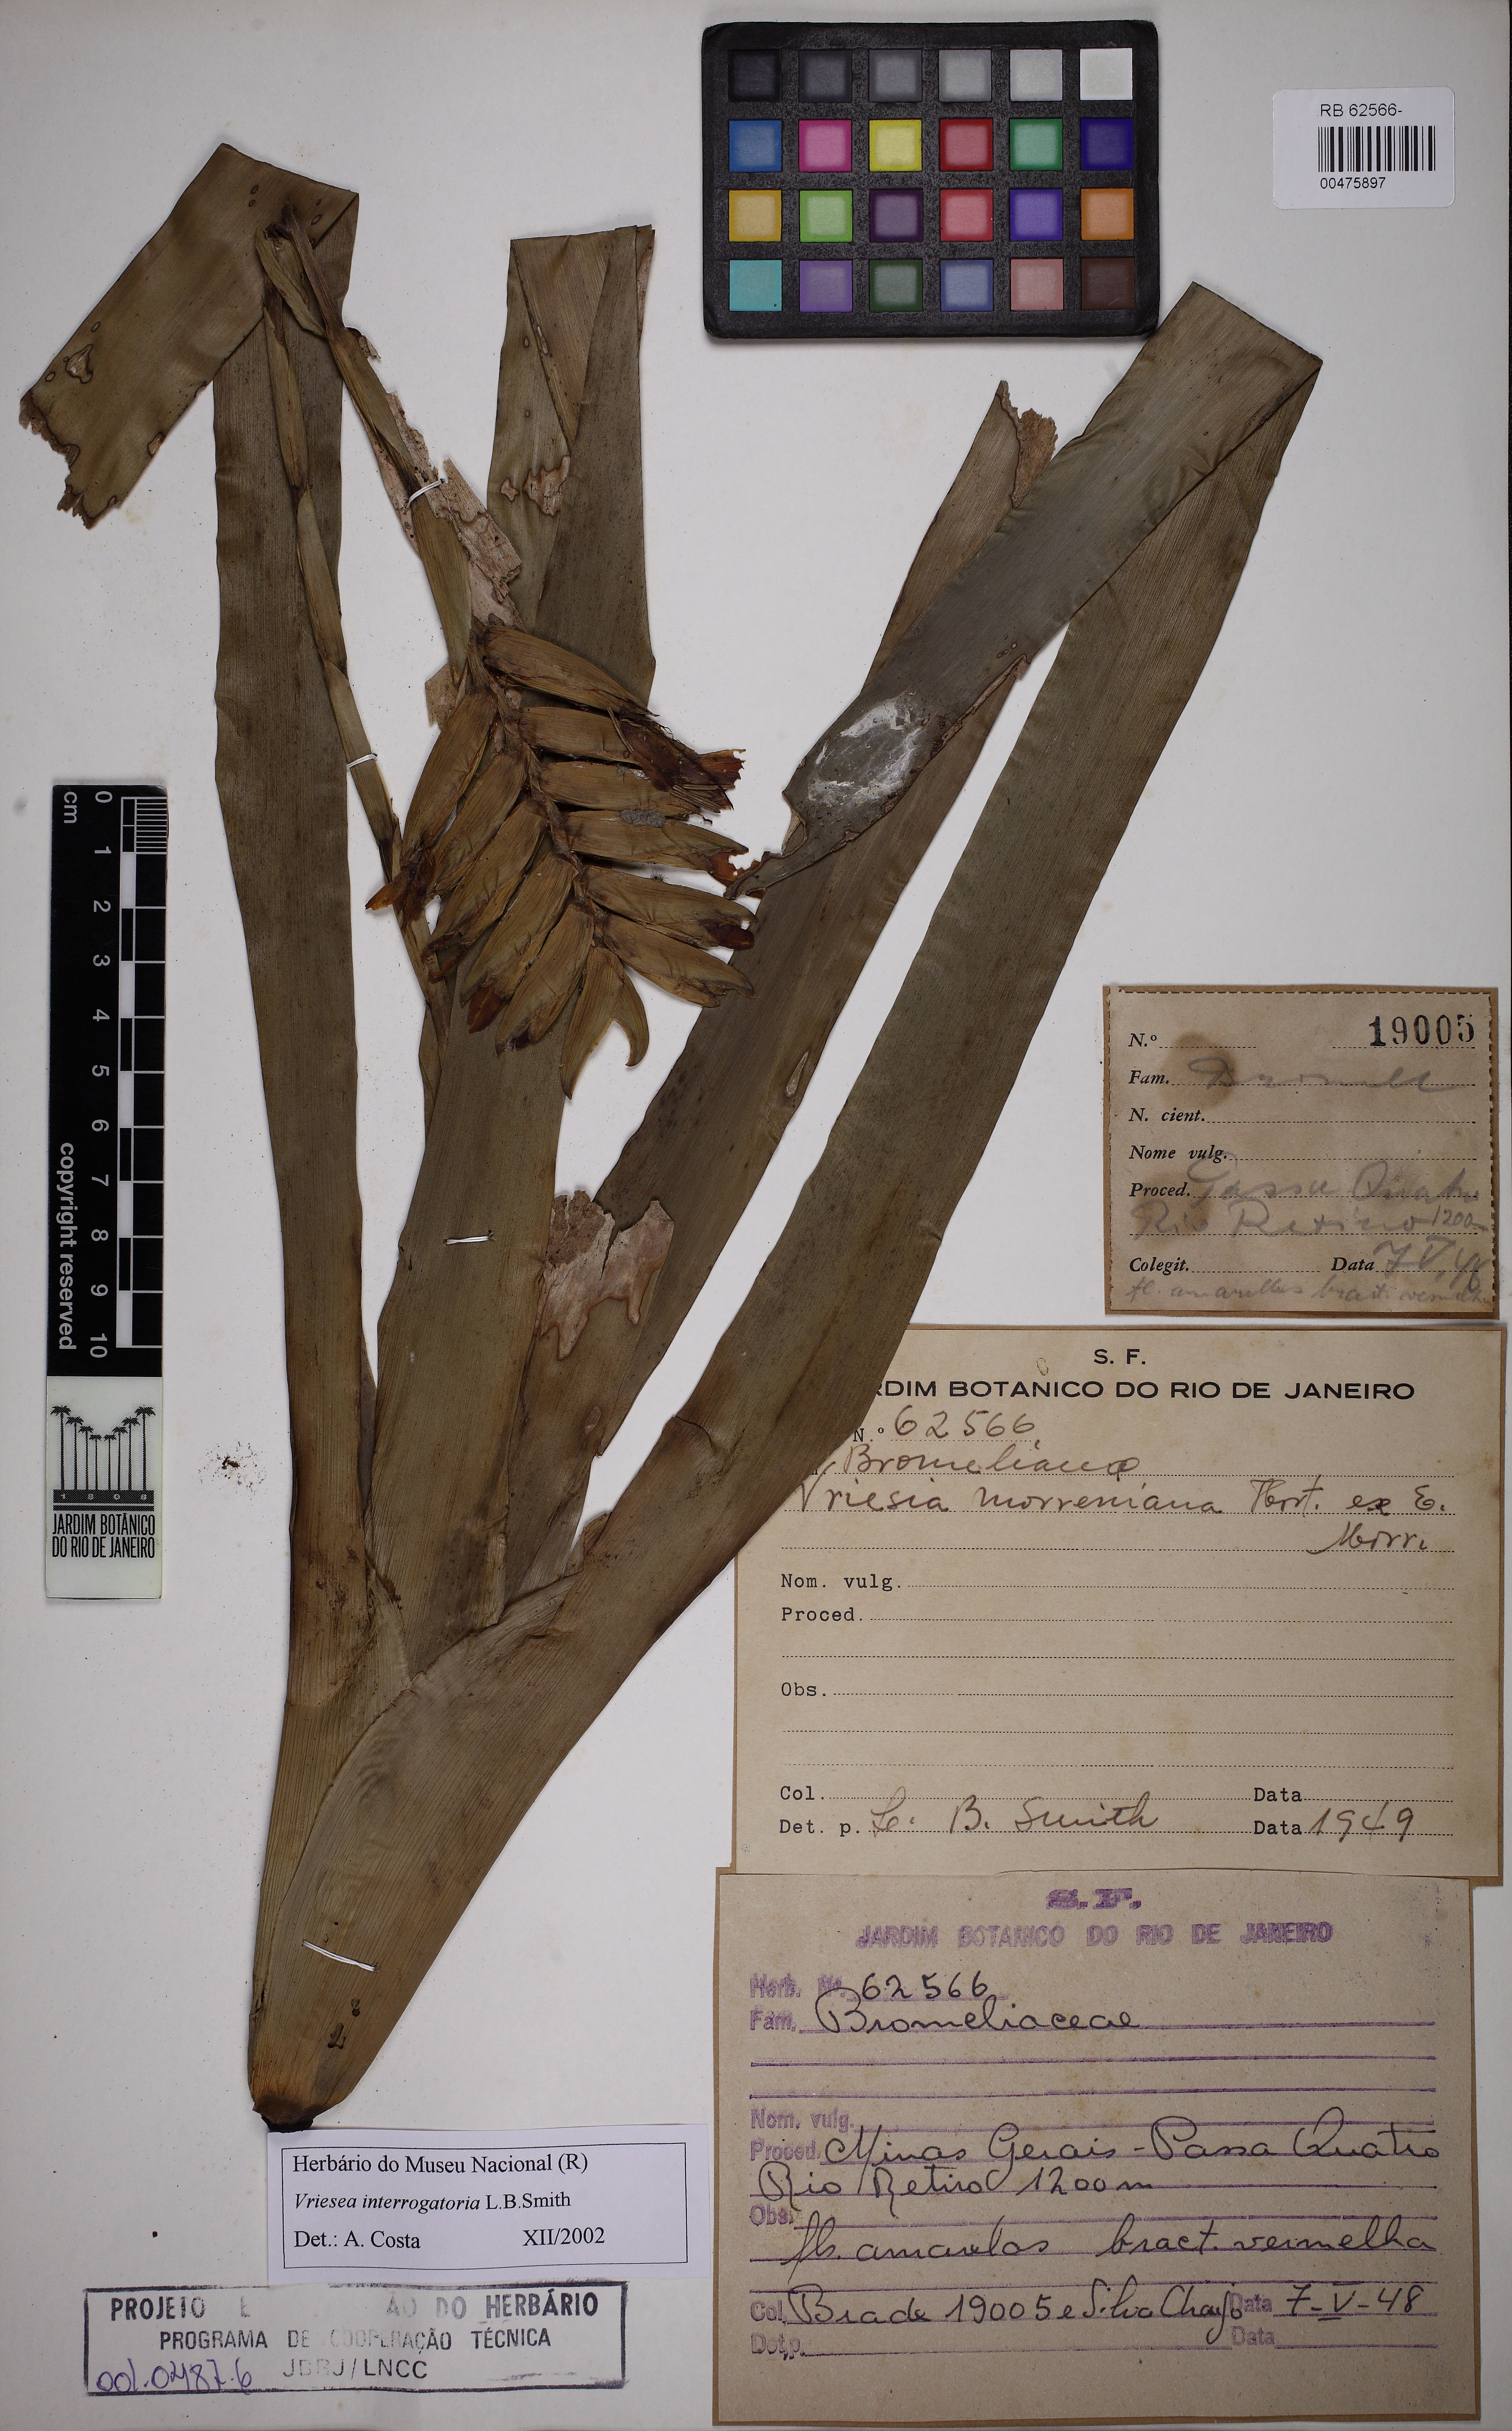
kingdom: Plantae
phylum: Tracheophyta
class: Liliopsida
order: Poales
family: Bromeliaceae
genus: Vriesea
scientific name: Vriesea interrogatoria
